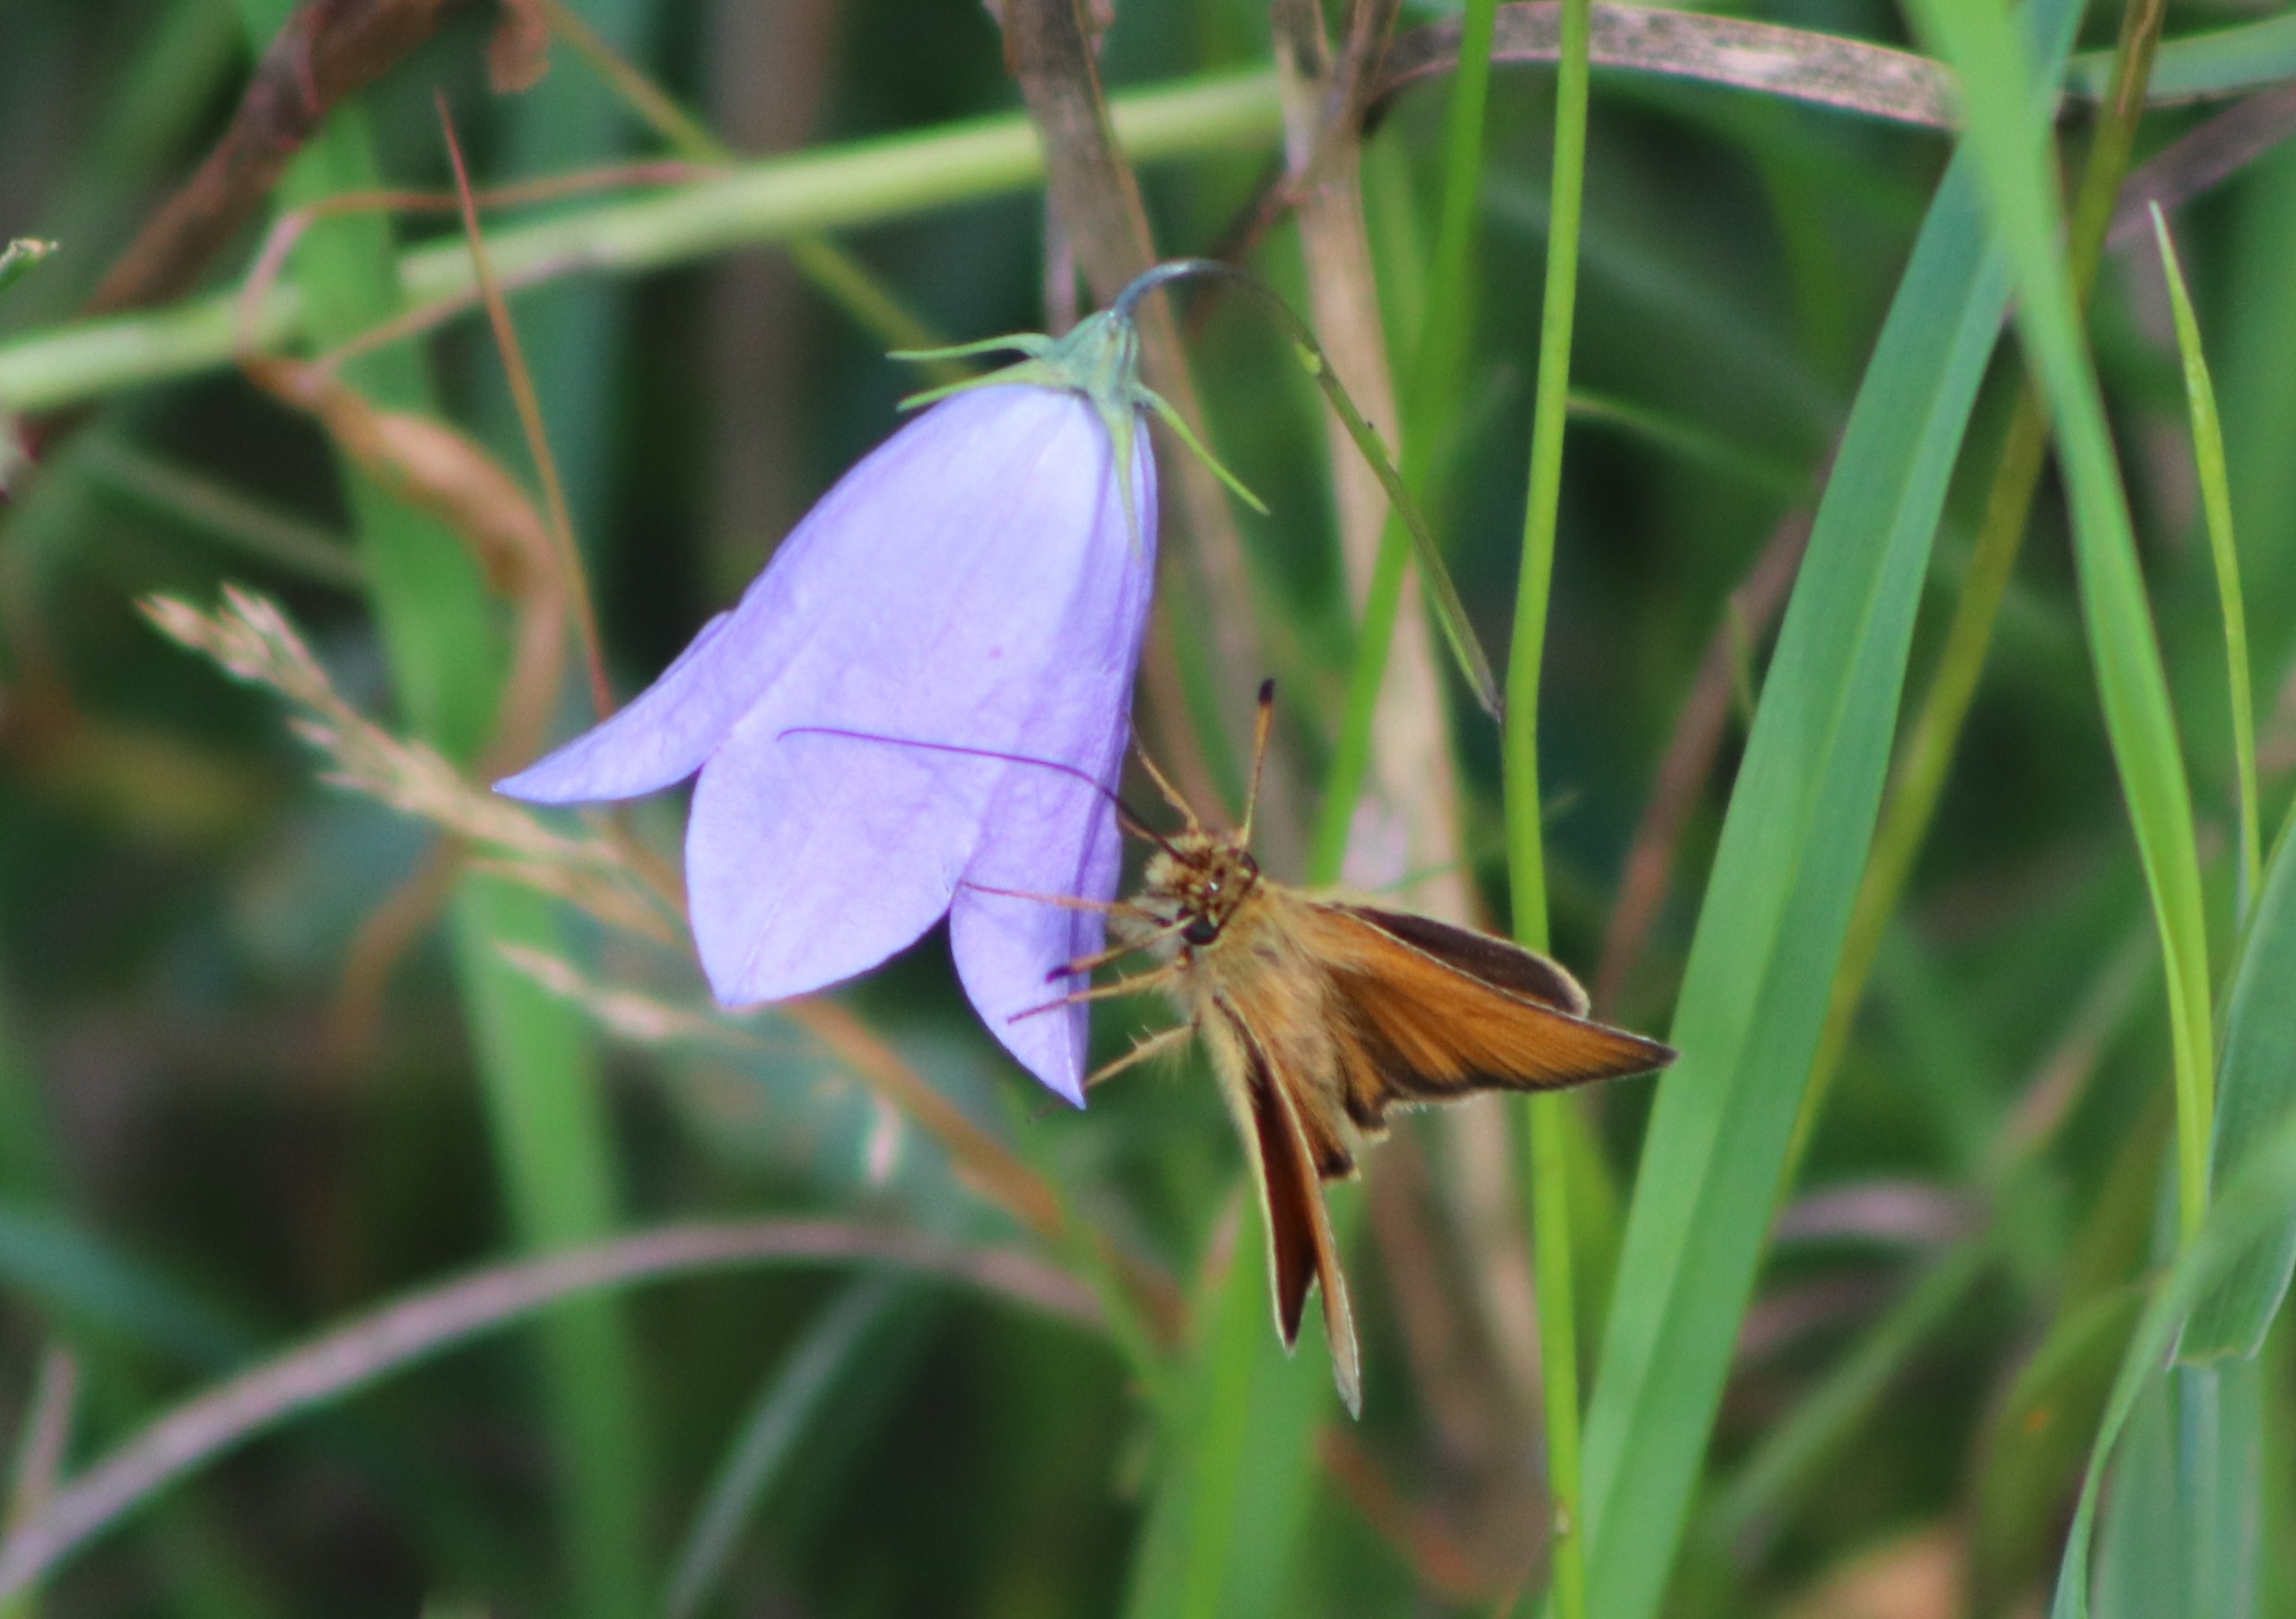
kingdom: Plantae
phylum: Tracheophyta
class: Magnoliopsida
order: Asterales
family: Campanulaceae
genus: Campanula
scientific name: Campanula rotundifolia
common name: Liden klokke
